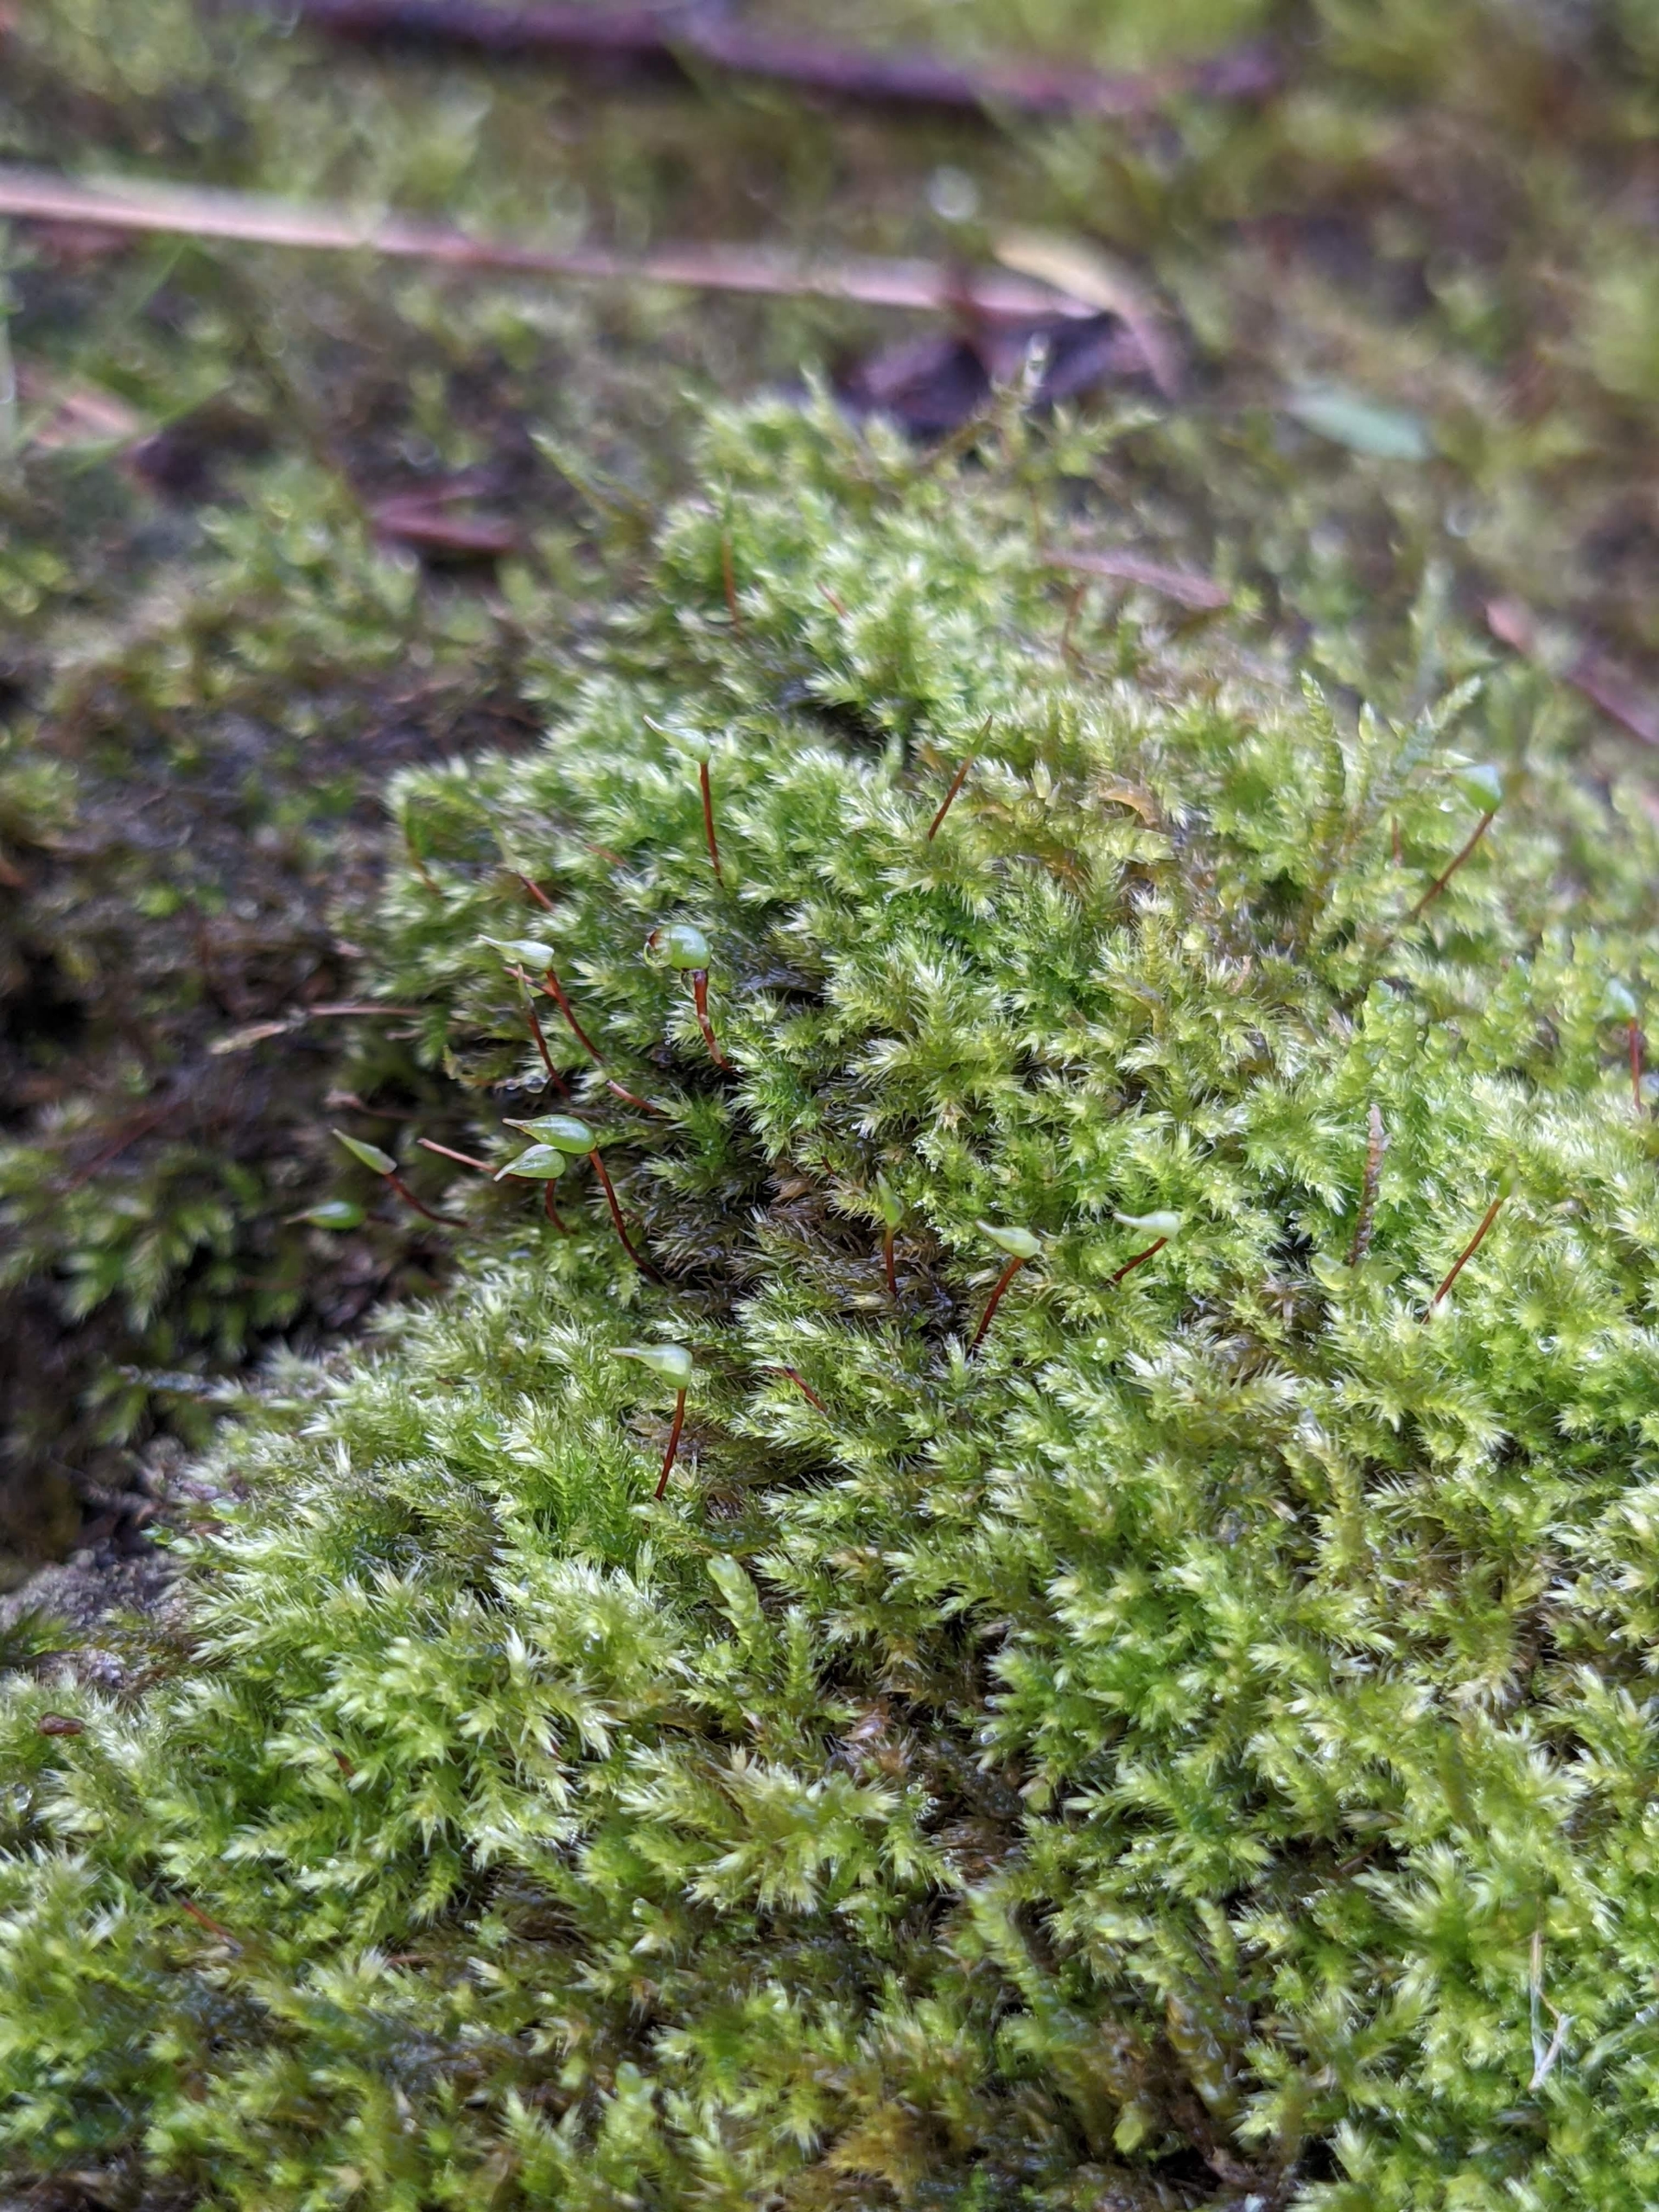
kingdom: Plantae
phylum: Bryophyta
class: Bryopsida
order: Hypnales
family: Brachytheciaceae
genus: Brachytheciastrum
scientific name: Brachytheciastrum velutinum
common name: Fløjls-kortkapsel
